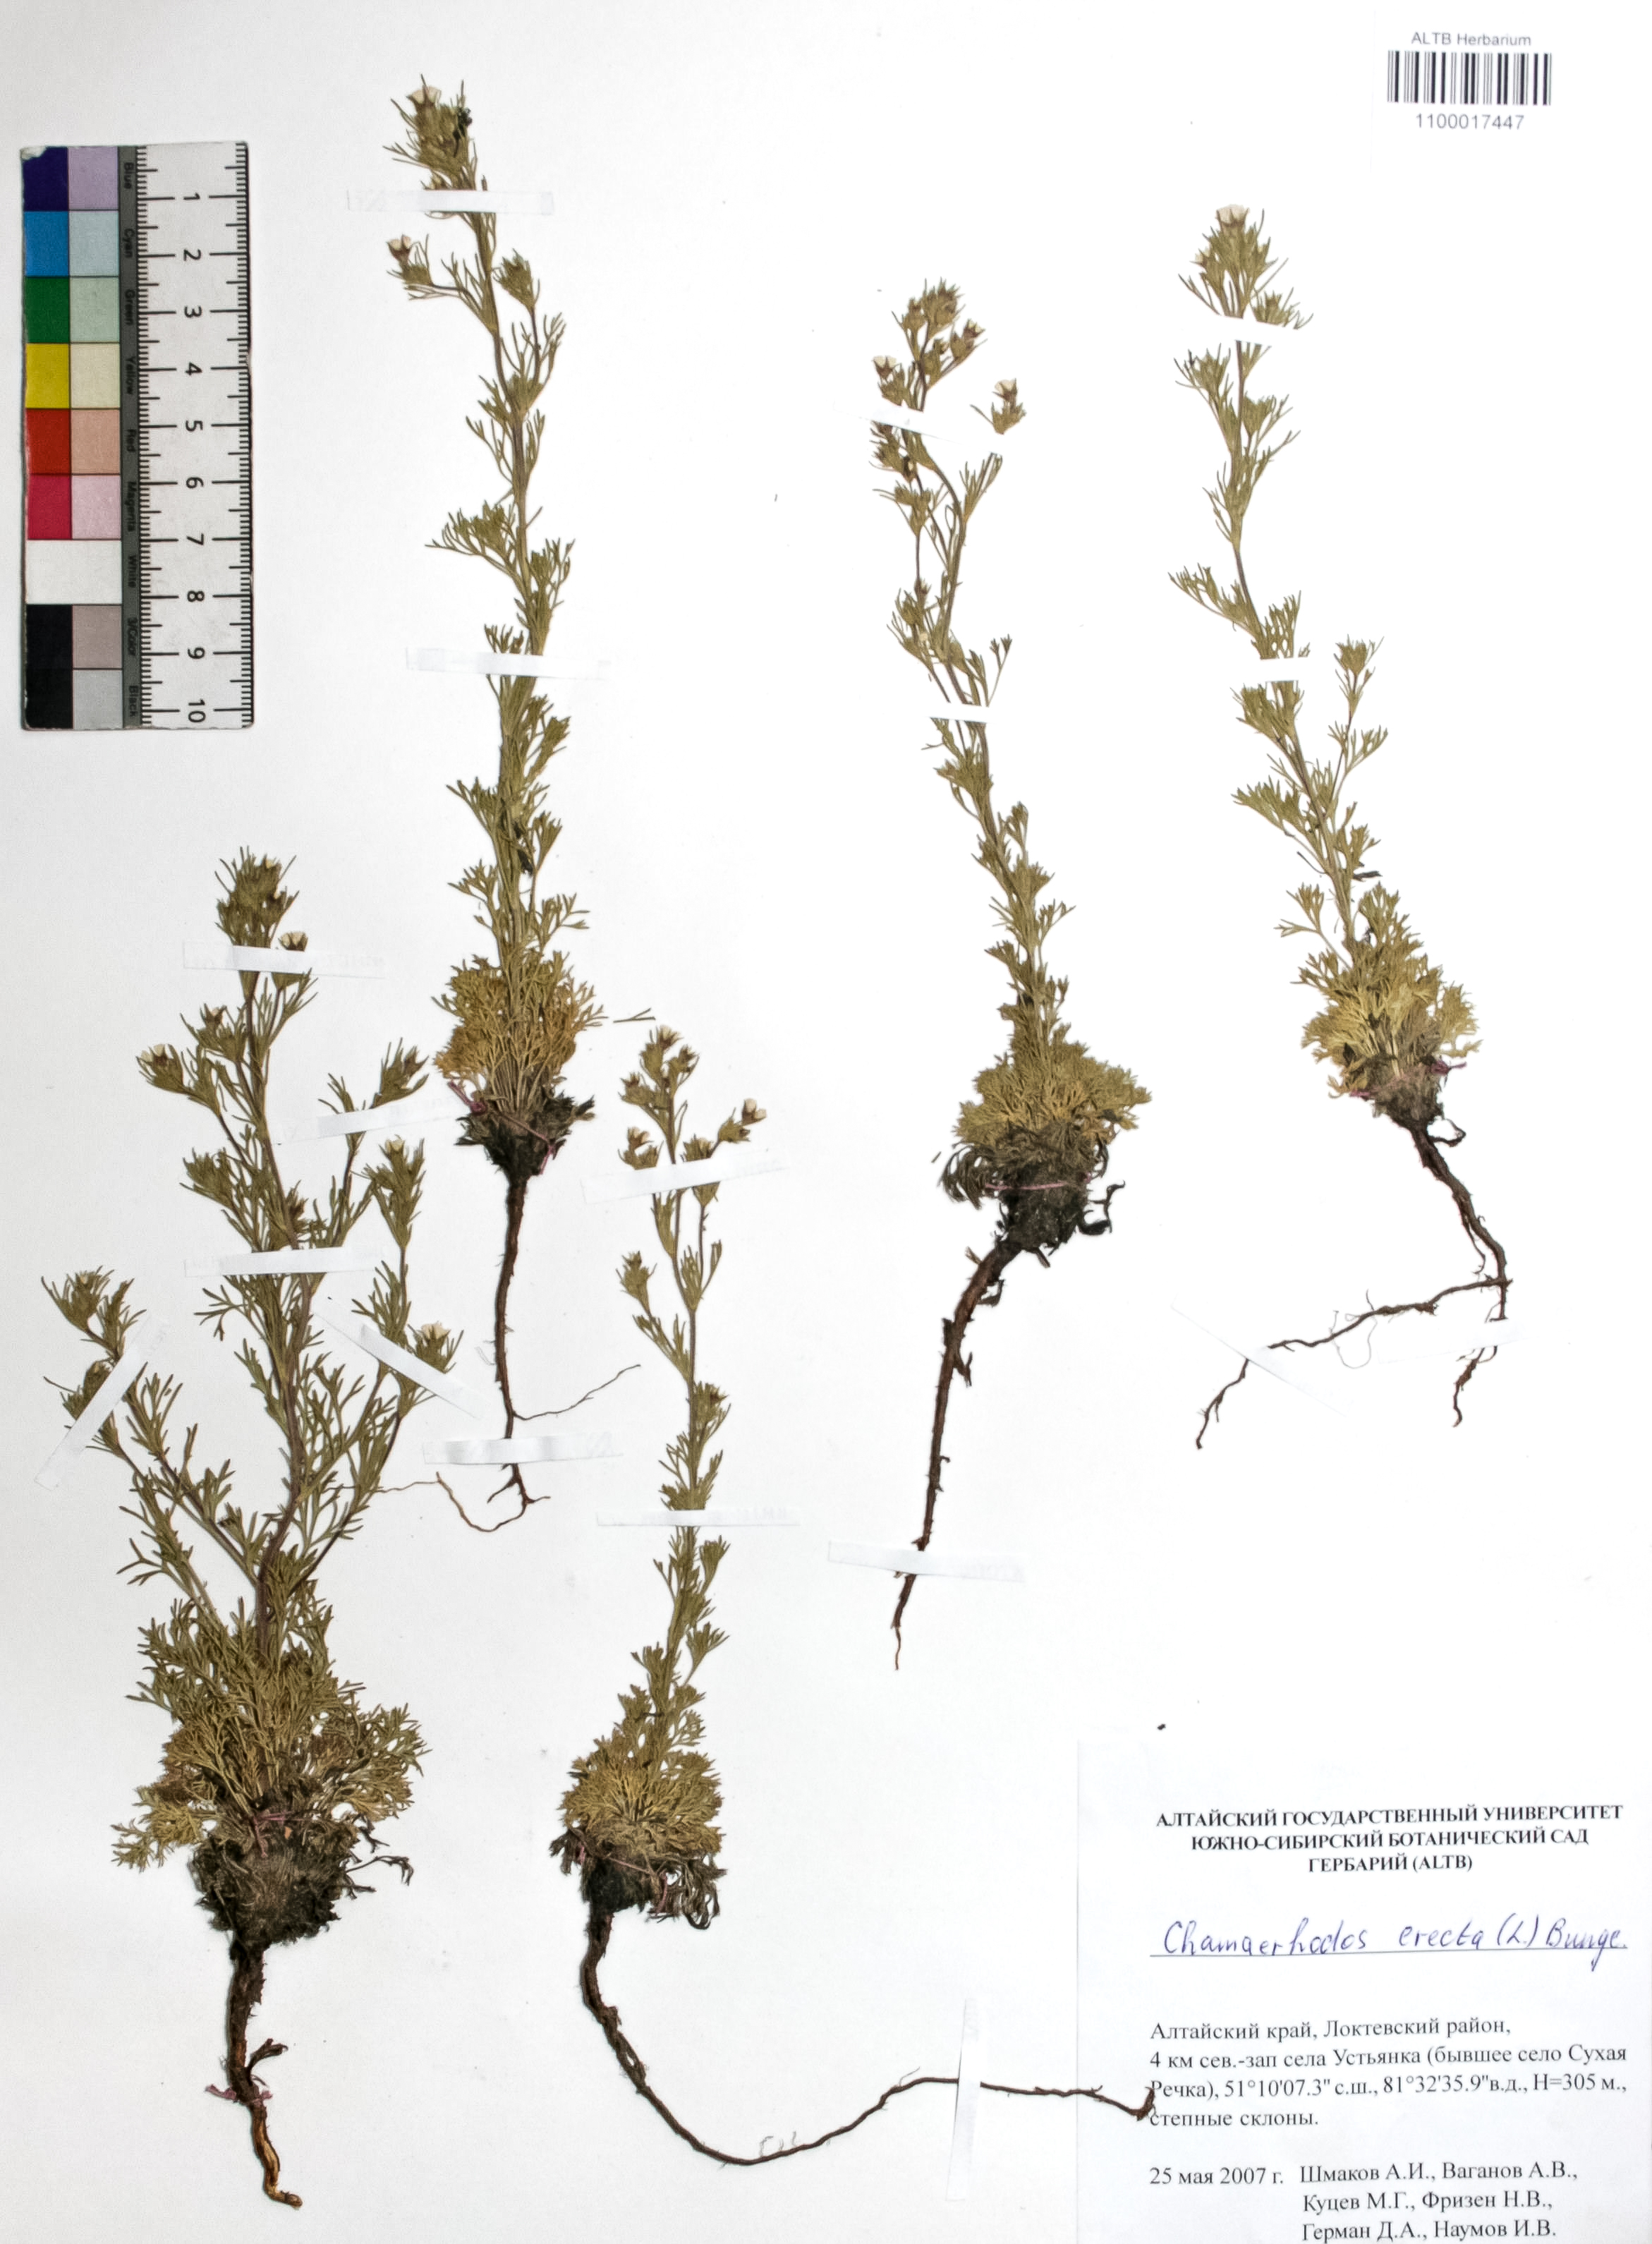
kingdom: Plantae
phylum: Tracheophyta
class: Magnoliopsida
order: Rosales
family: Rosaceae
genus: Chamaerhodos
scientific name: Chamaerhodos erecta
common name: American chamaerhodos
